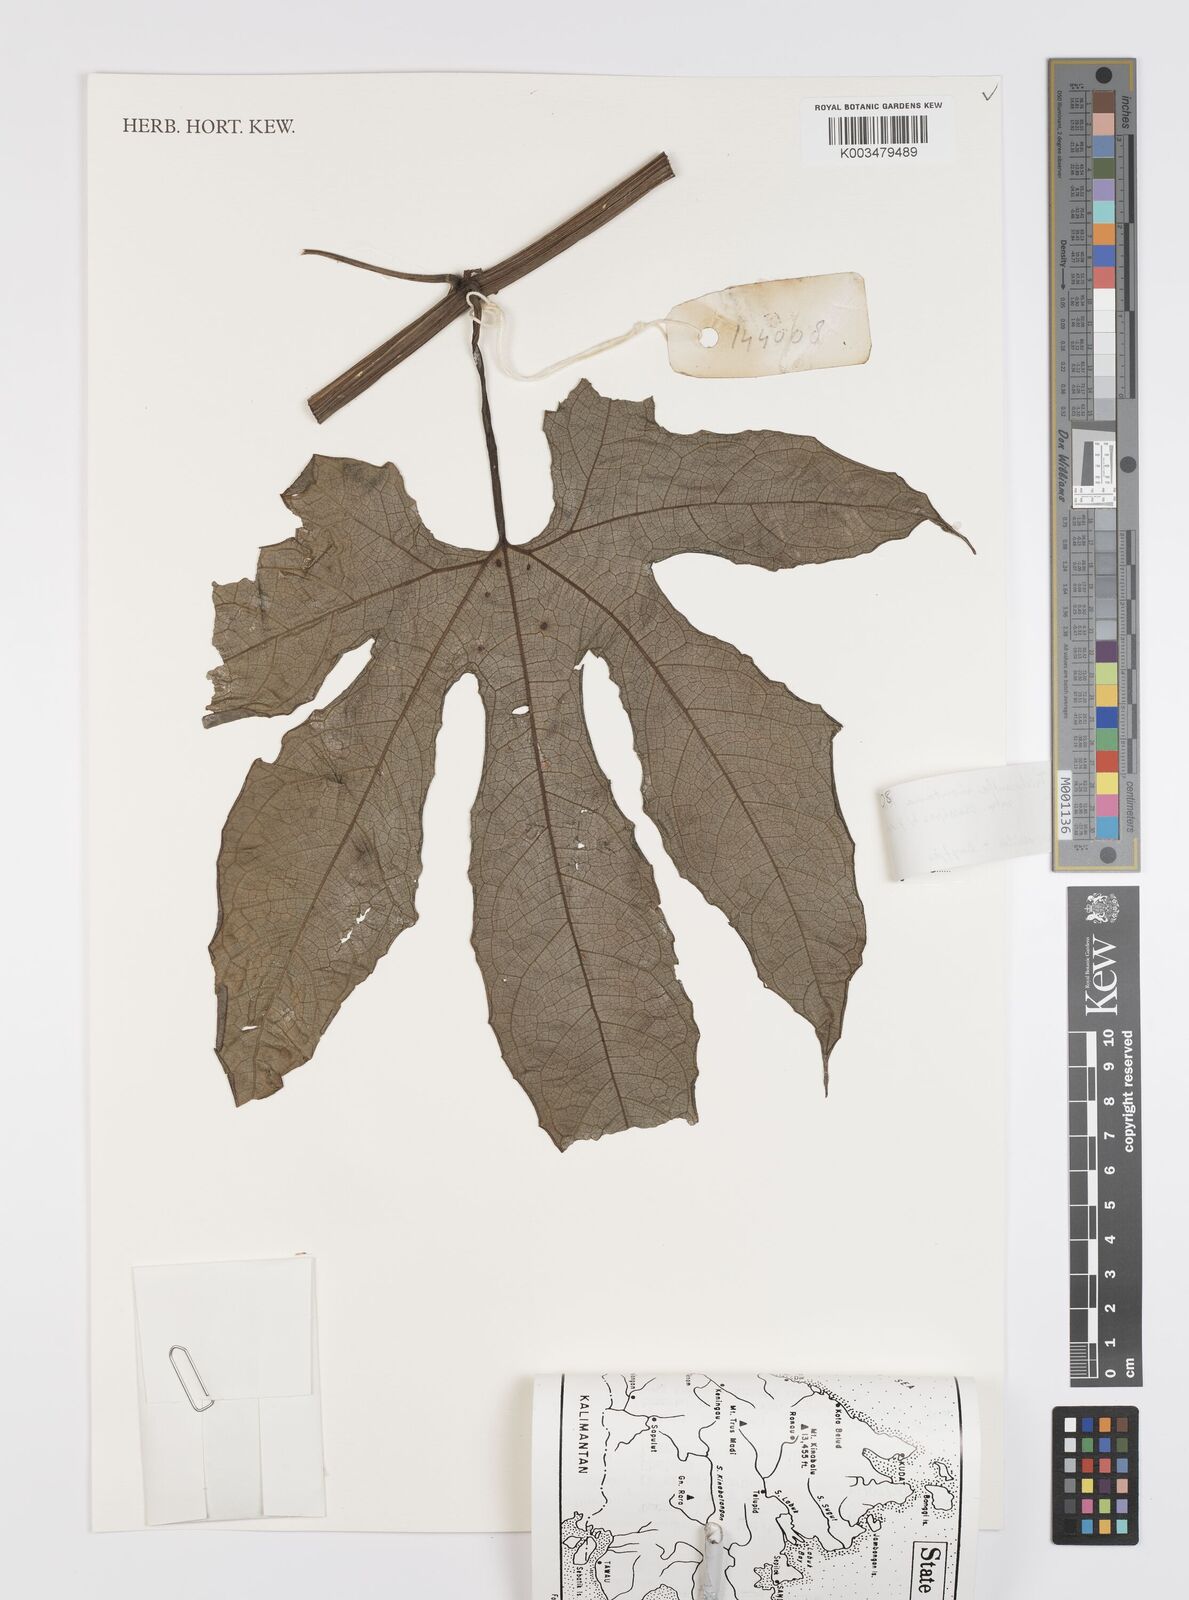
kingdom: Plantae
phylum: Tracheophyta
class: Magnoliopsida
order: Cucurbitales
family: Cucurbitaceae
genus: Trichosanthes
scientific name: Trichosanthes
